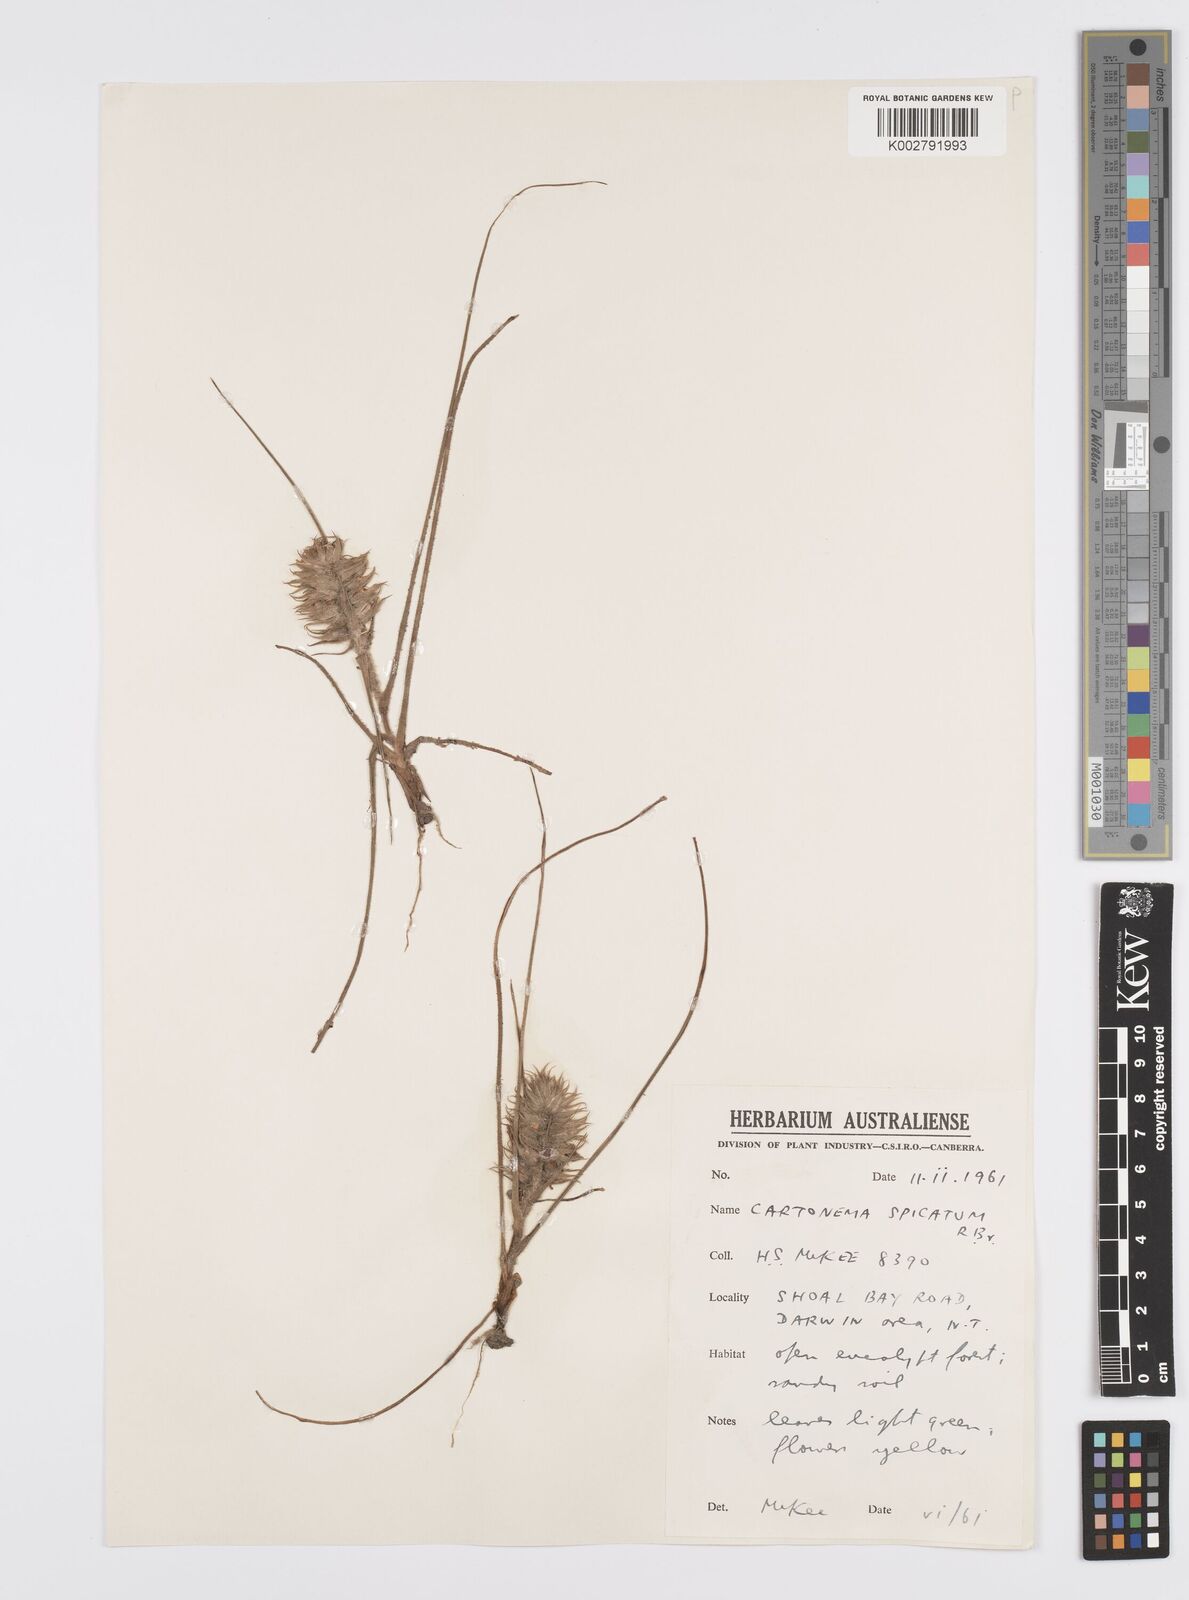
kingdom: Plantae
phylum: Tracheophyta
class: Liliopsida
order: Commelinales
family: Commelinaceae
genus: Cartonema
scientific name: Cartonema spicatum
